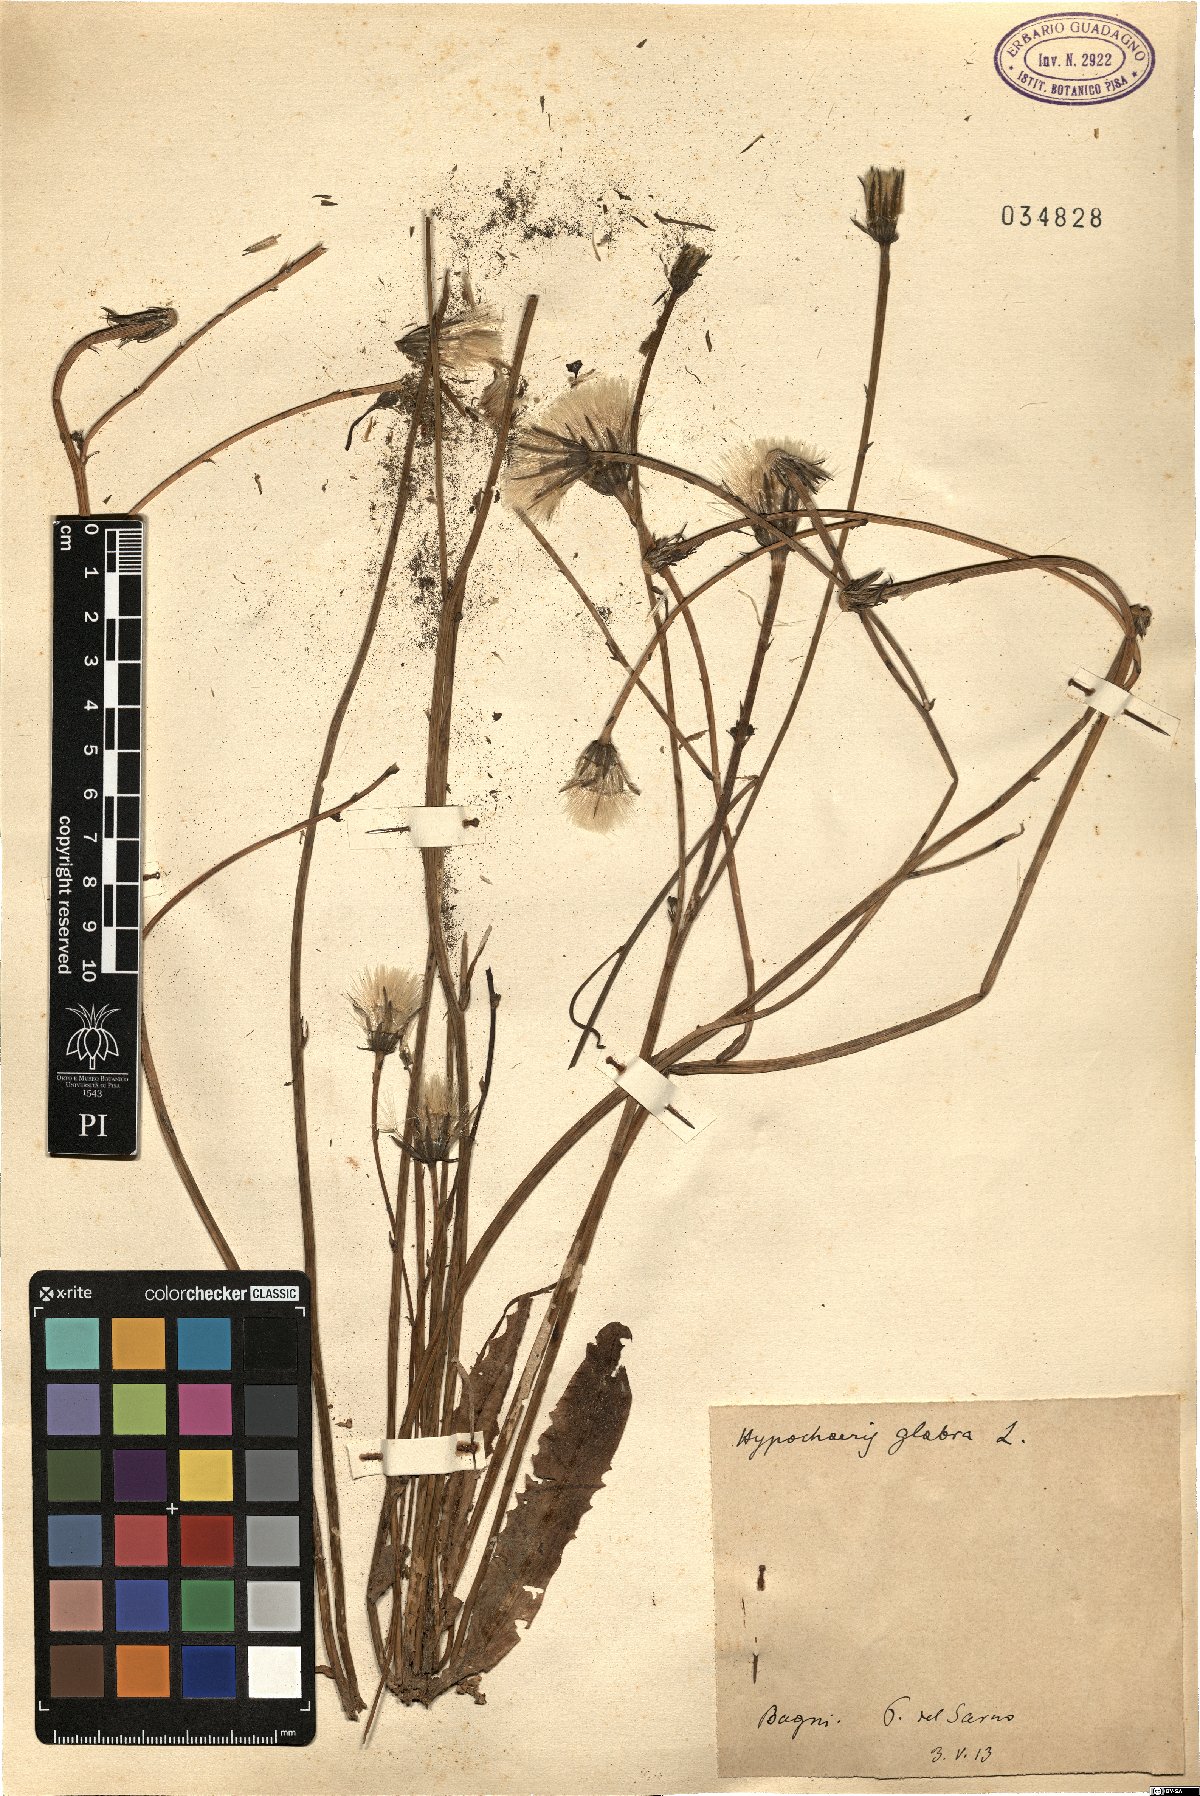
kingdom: Plantae
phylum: Tracheophyta
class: Magnoliopsida
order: Asterales
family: Asteraceae
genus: Hypochaeris
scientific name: Hypochaeris glabra
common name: Smooth catsear
